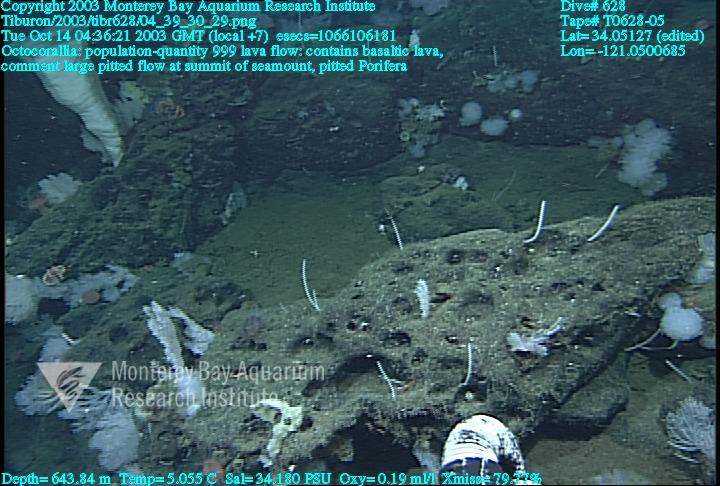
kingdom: Animalia
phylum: Porifera
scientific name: Porifera
